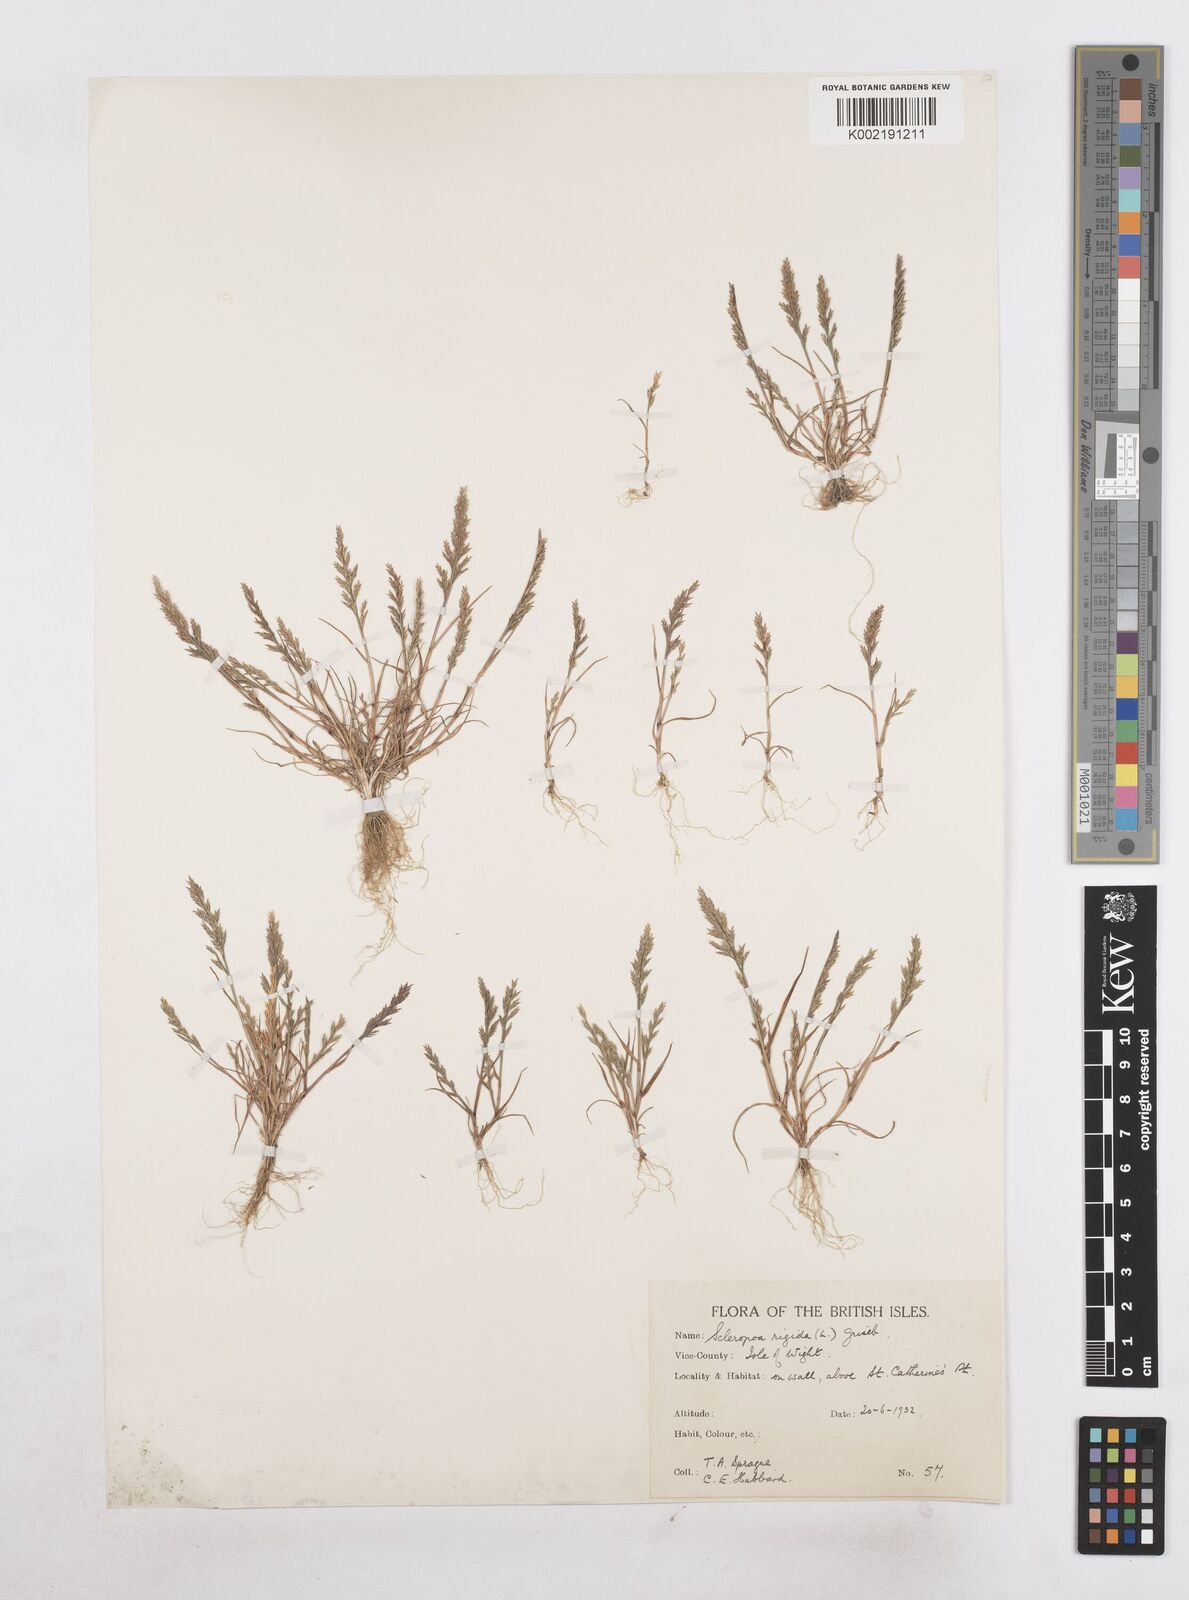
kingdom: Plantae
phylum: Tracheophyta
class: Liliopsida
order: Poales
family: Poaceae
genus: Catapodium
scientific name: Catapodium rigidum
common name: Fern-grass
